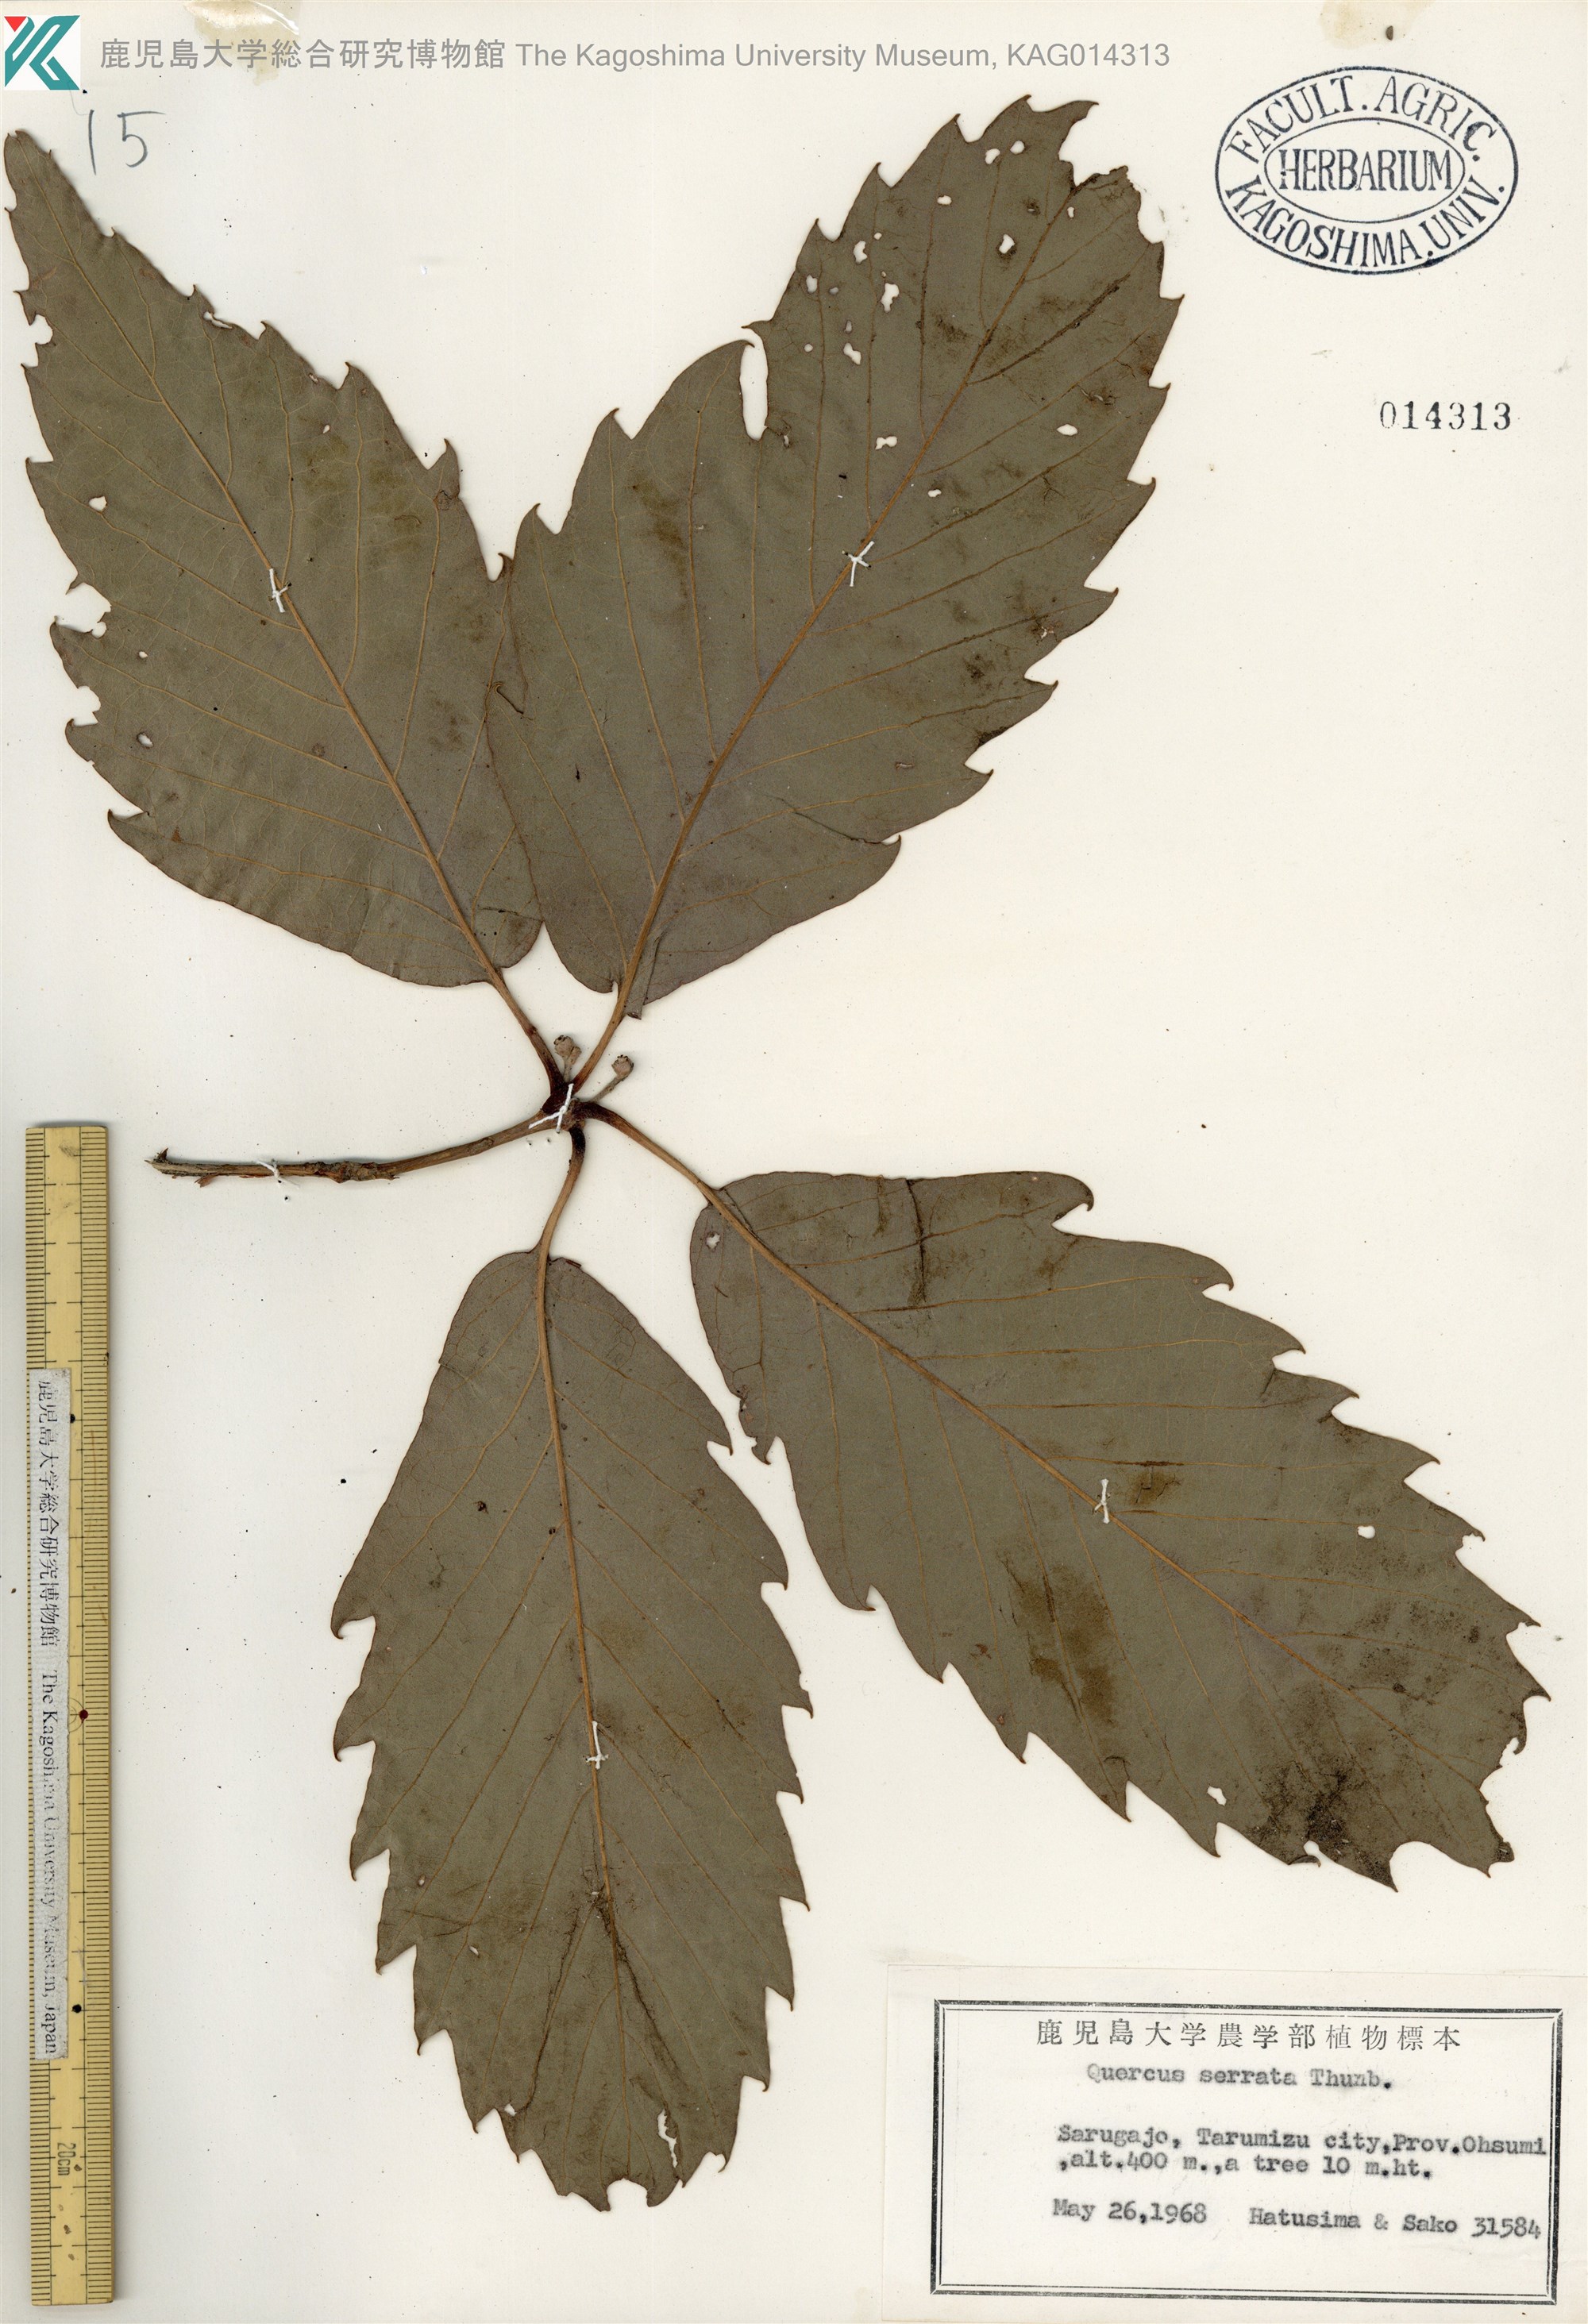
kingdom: Plantae
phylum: Tracheophyta
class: Magnoliopsida
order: Fagales
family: Fagaceae
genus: Quercus
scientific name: Quercus serrata
